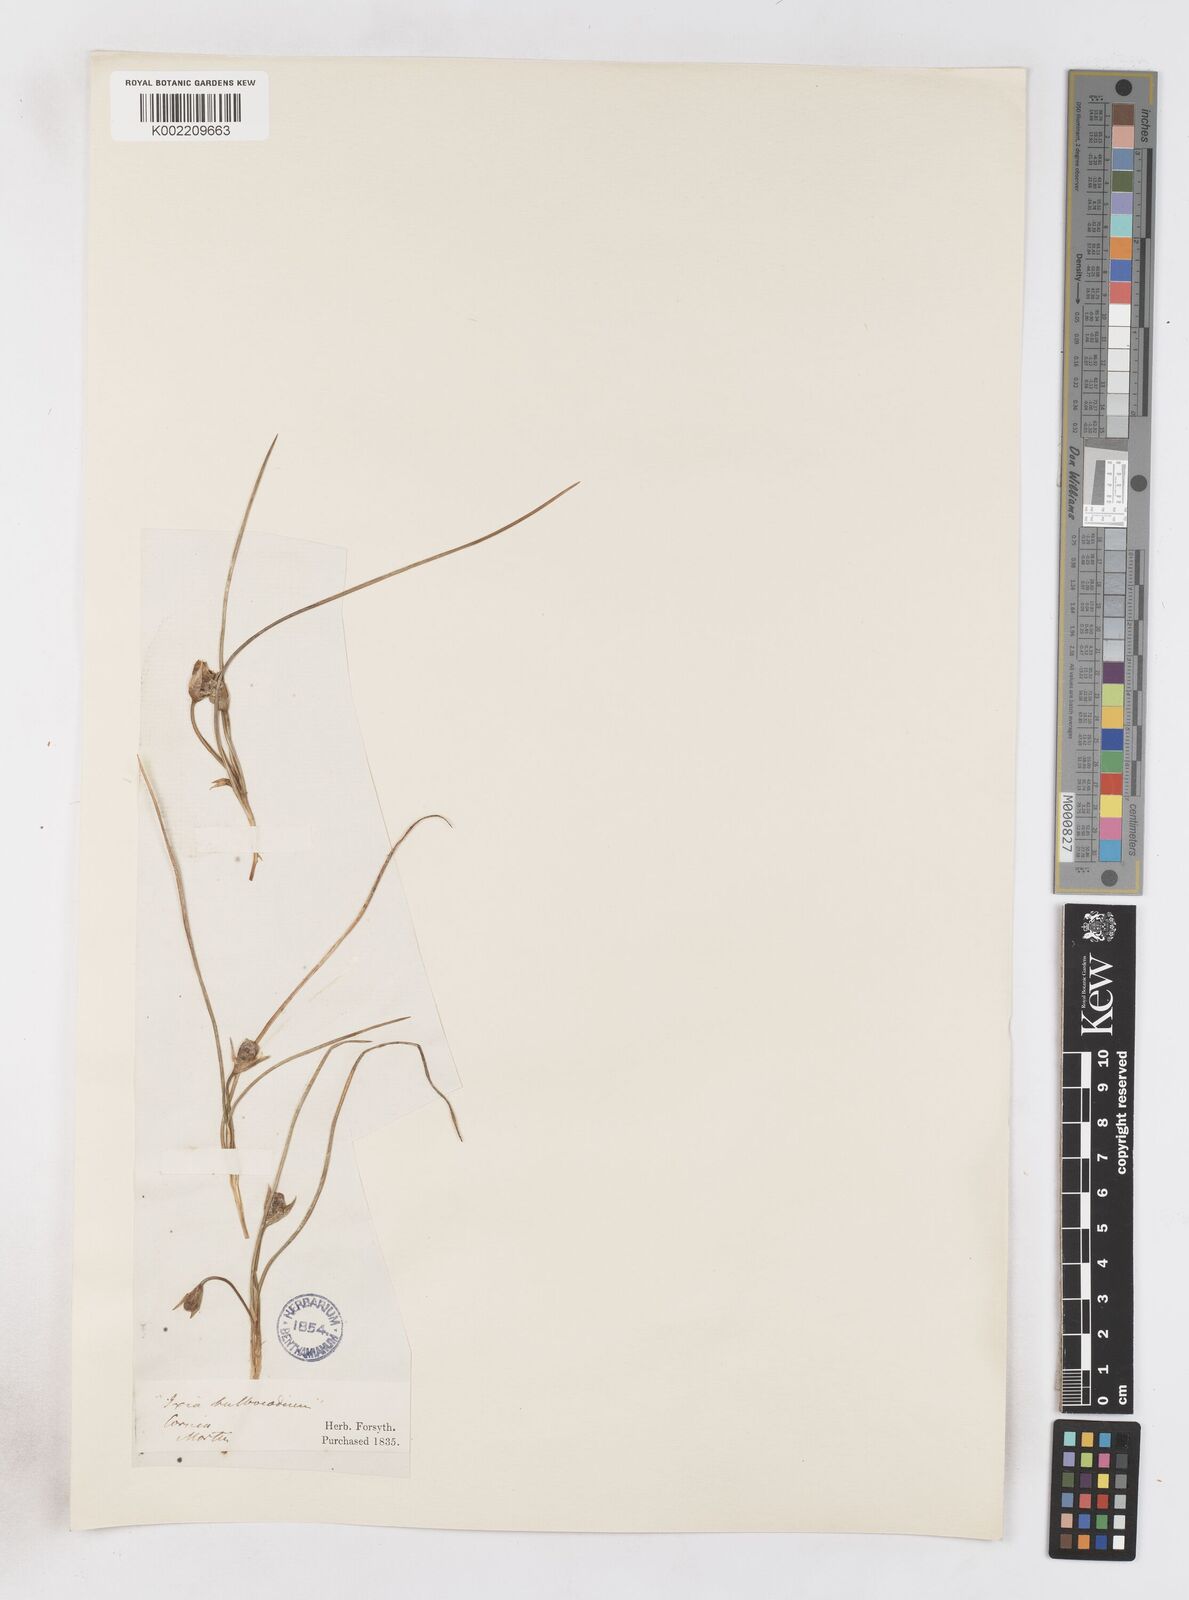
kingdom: Plantae
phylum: Tracheophyta
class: Liliopsida
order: Asparagales
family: Iridaceae
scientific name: Iridaceae
